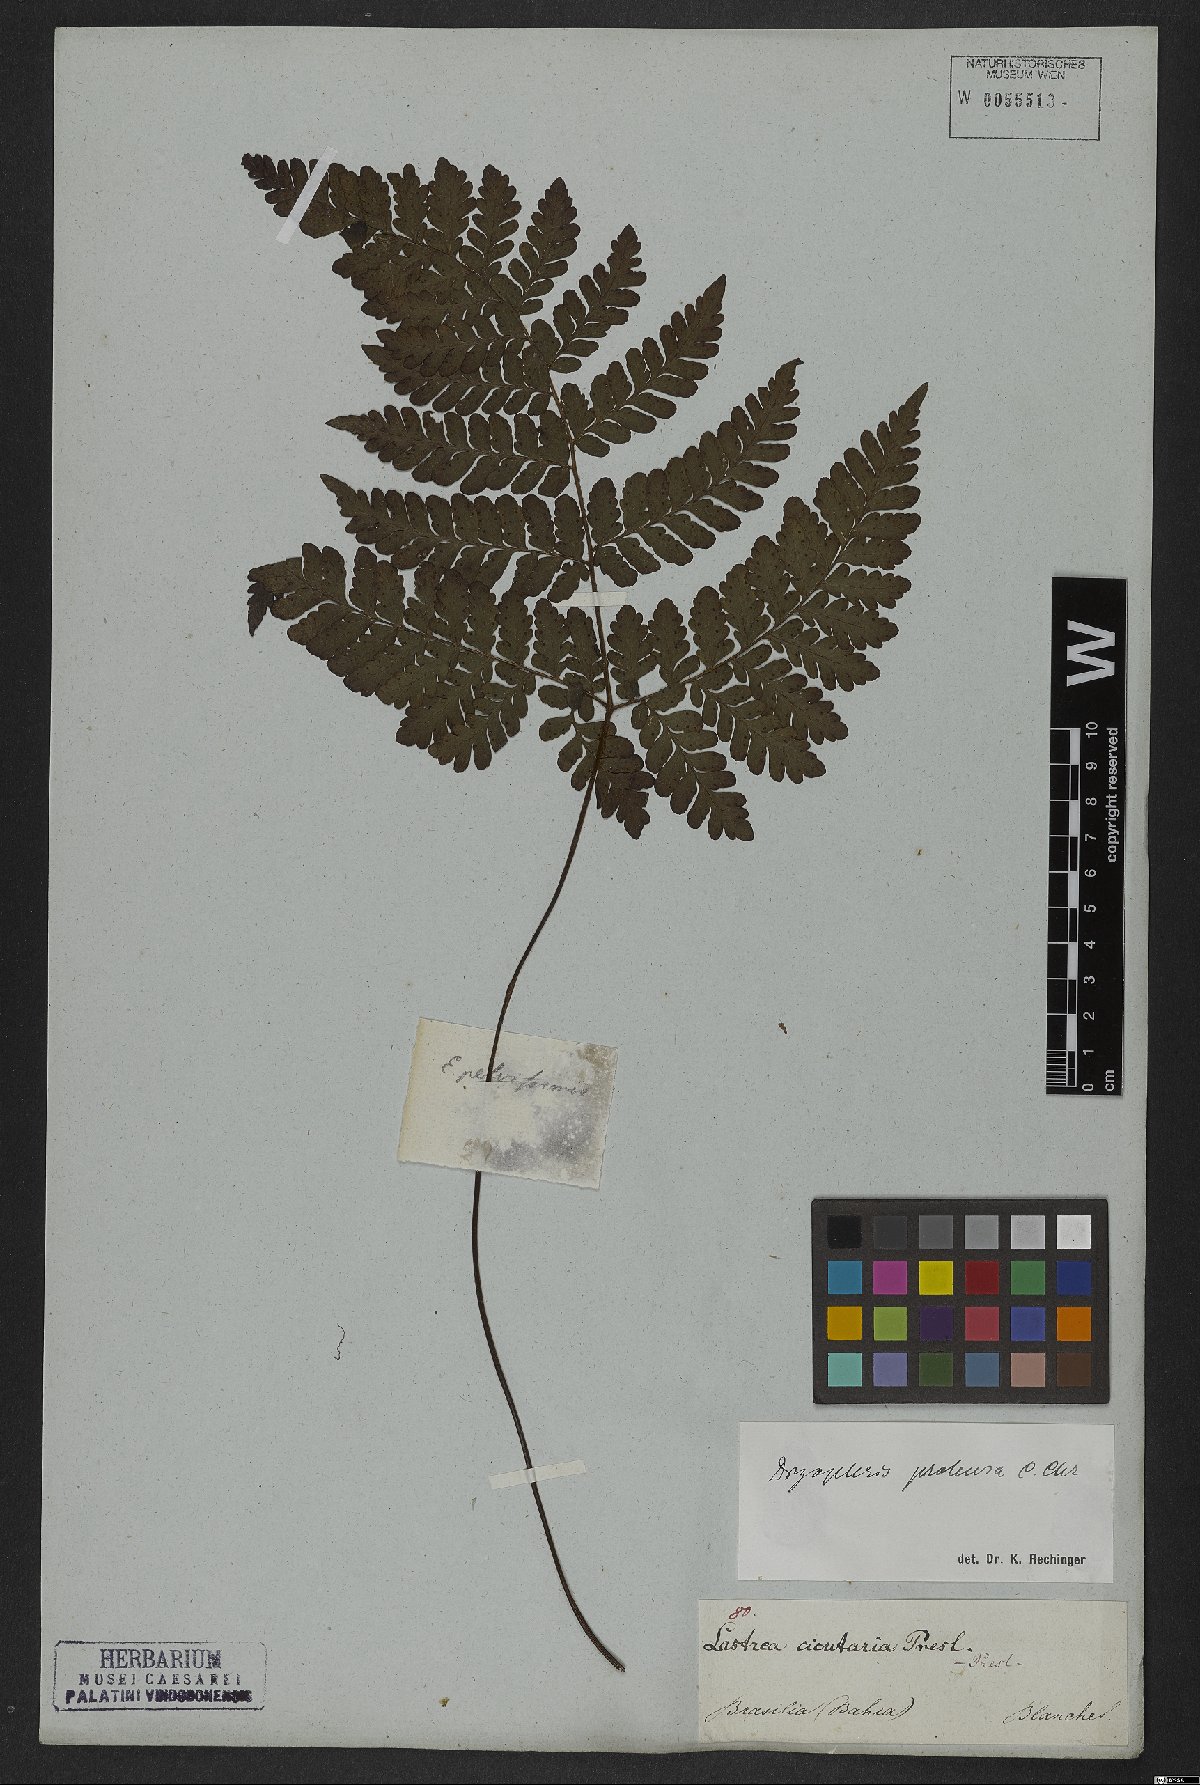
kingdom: Plantae
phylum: Tracheophyta
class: Polypodiopsida
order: Polypodiales
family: Tectariaceae
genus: Triplophyllum
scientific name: Triplophyllum protensum
